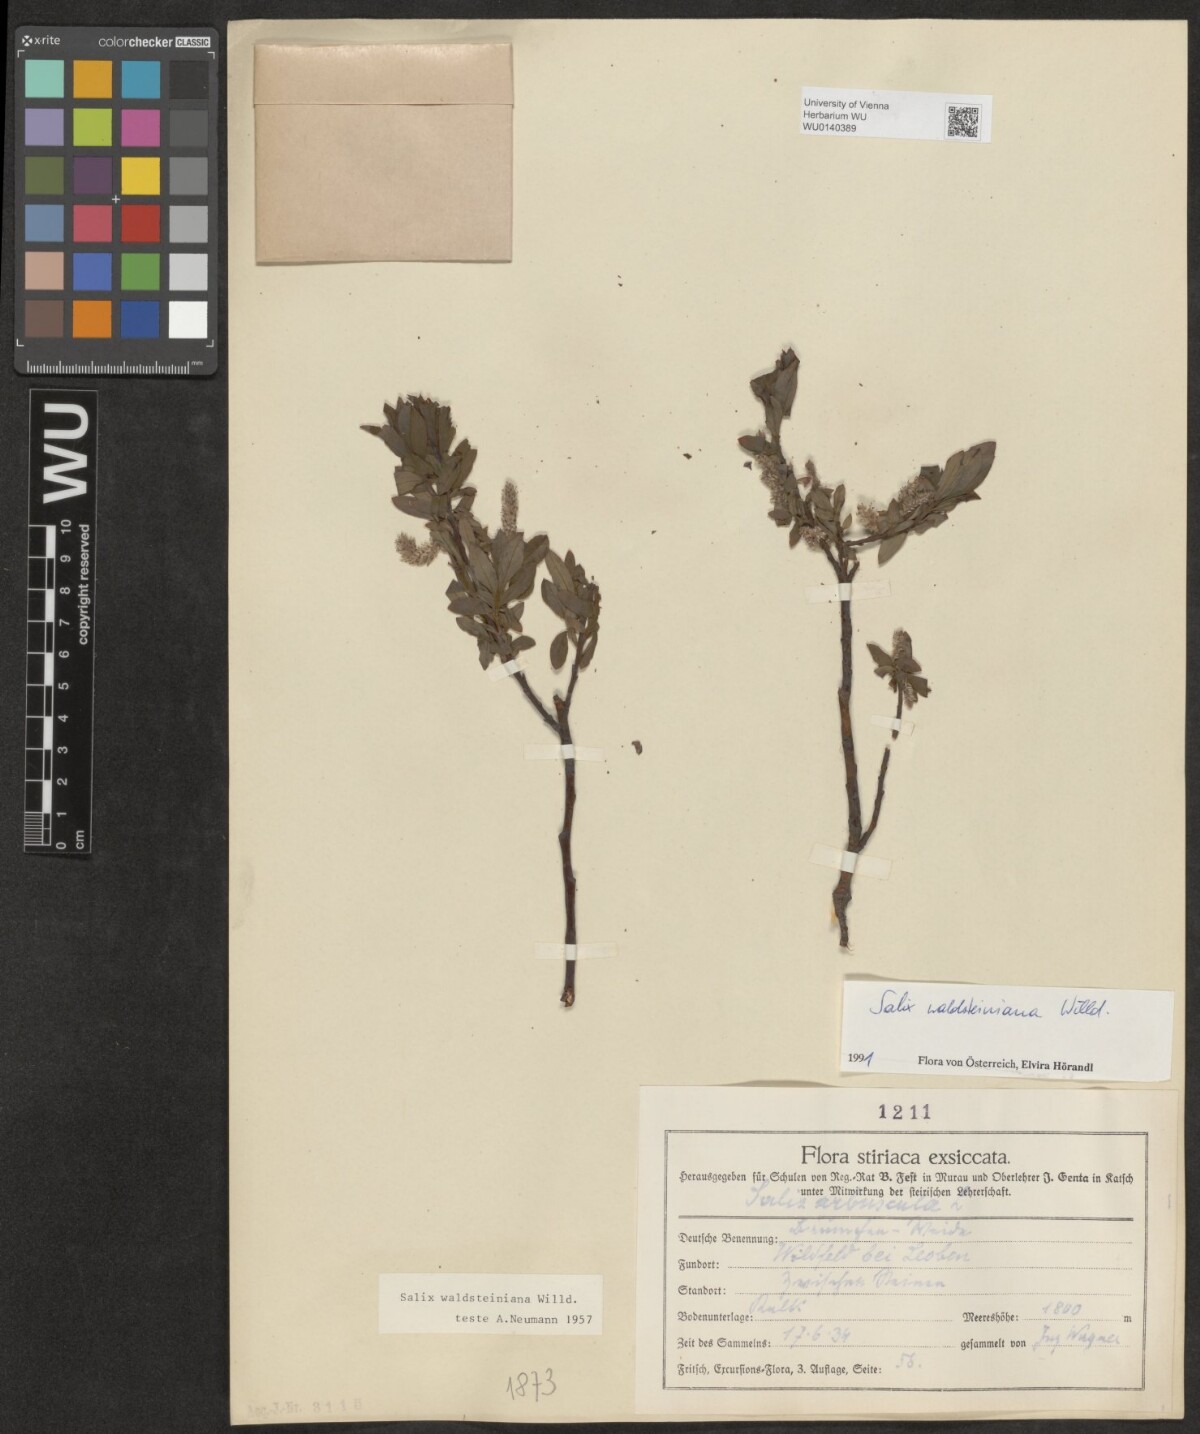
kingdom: Plantae
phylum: Tracheophyta
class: Magnoliopsida
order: Malpighiales
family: Salicaceae
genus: Salix
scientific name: Salix waldsteiniana
